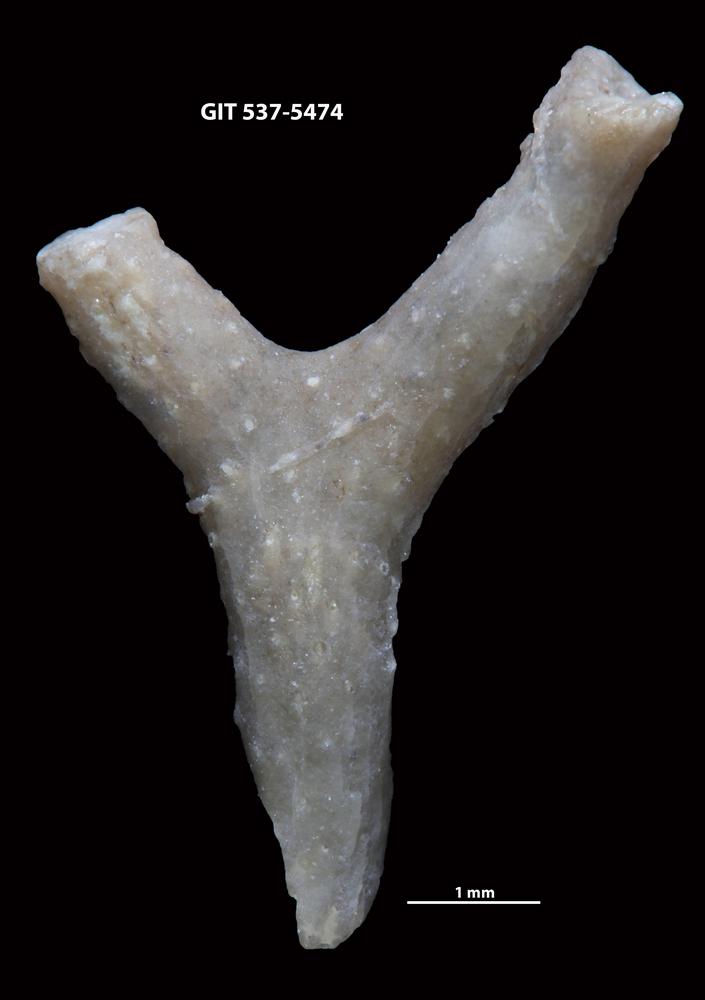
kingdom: Animalia
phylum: Bryozoa
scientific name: Bryozoa
